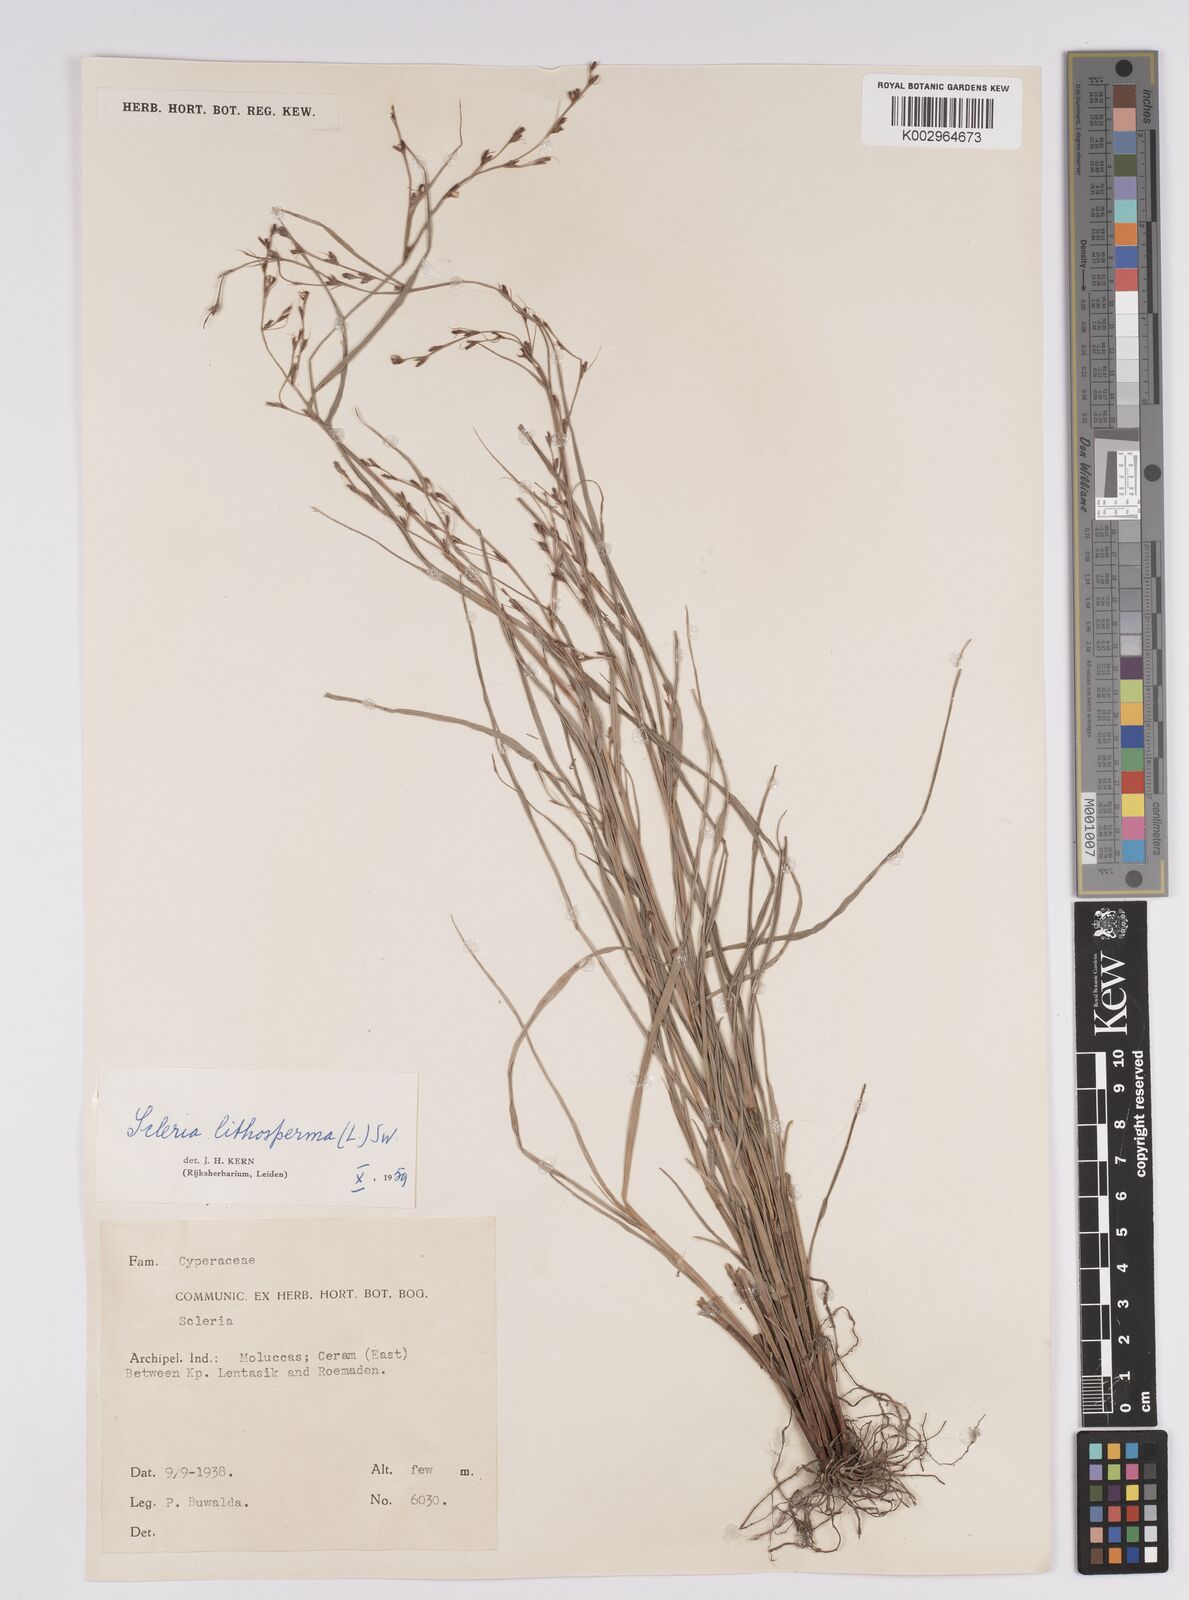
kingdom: Plantae
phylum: Tracheophyta
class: Liliopsida
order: Poales
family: Cyperaceae
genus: Scleria
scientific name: Scleria lithosperma
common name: Florida keys nut-rush
